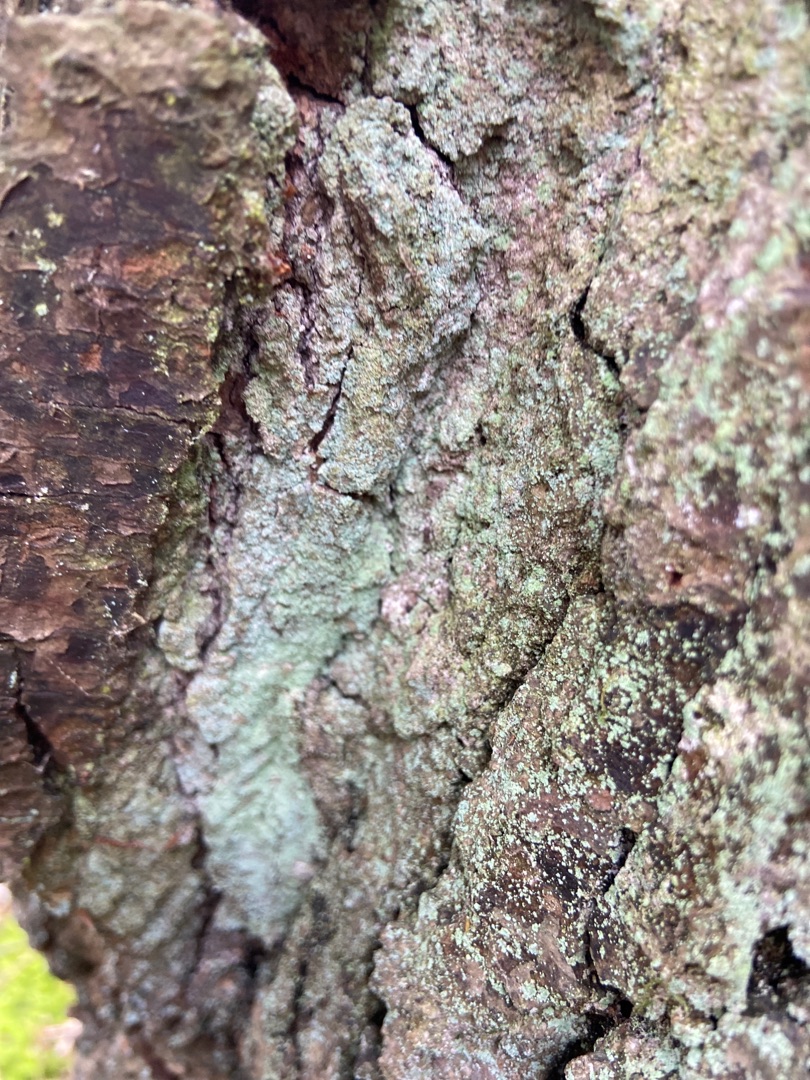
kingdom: Fungi
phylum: Ascomycota
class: Lecanoromycetes
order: Lecanorales
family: Stereocaulaceae
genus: Lepraria
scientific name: Lepraria incana
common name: Almindelig støvlav
